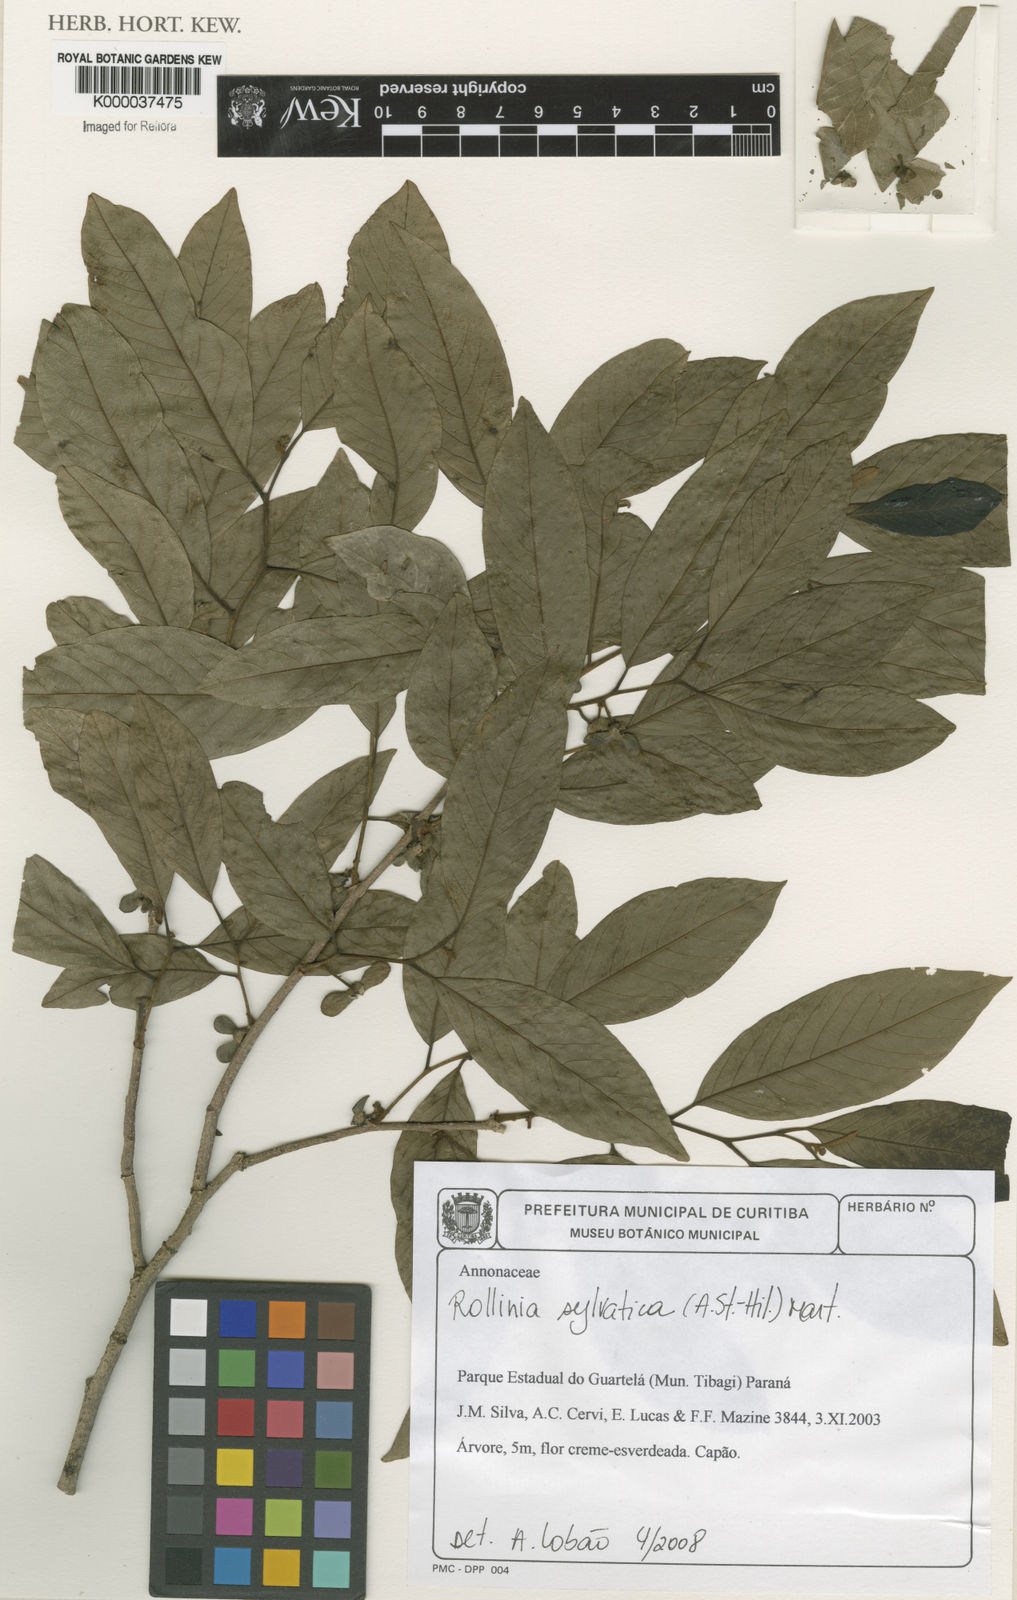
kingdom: Plantae
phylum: Tracheophyta
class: Magnoliopsida
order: Magnoliales
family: Annonaceae
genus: Annona
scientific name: Annona sylvatica
